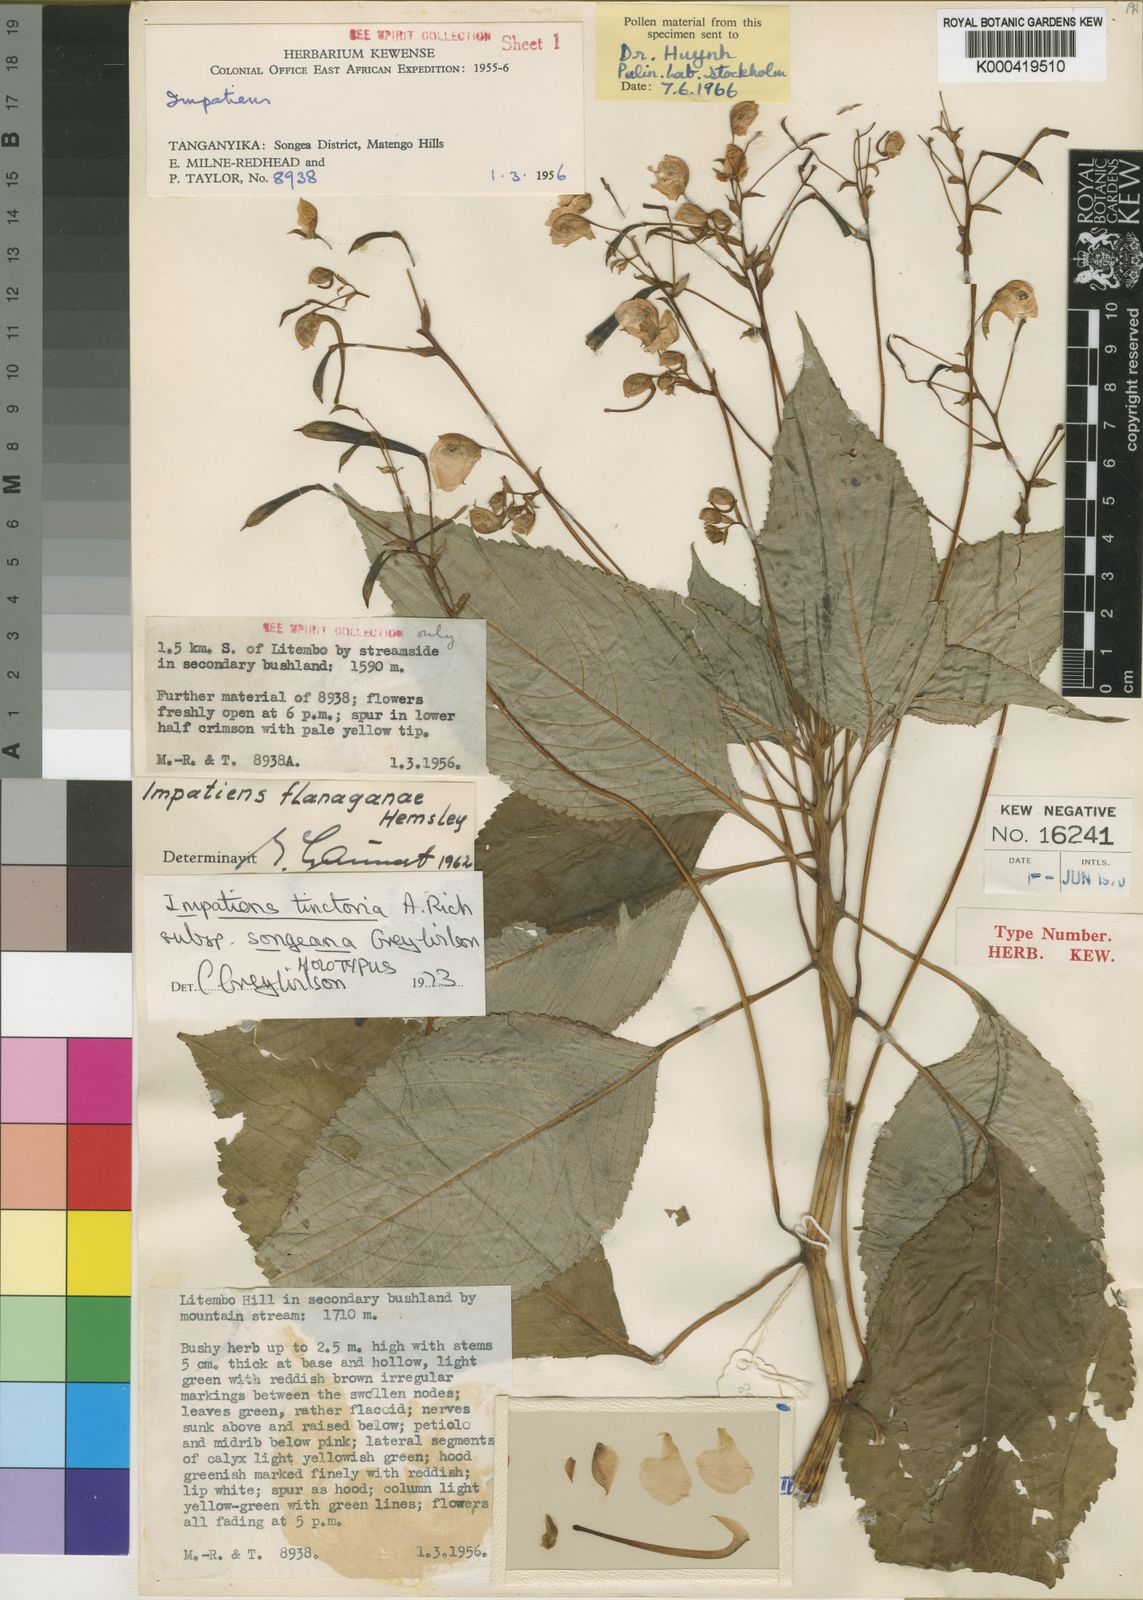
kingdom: Plantae
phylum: Tracheophyta
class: Magnoliopsida
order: Ericales
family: Balsaminaceae
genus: Impatiens
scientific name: Impatiens tinctoria
